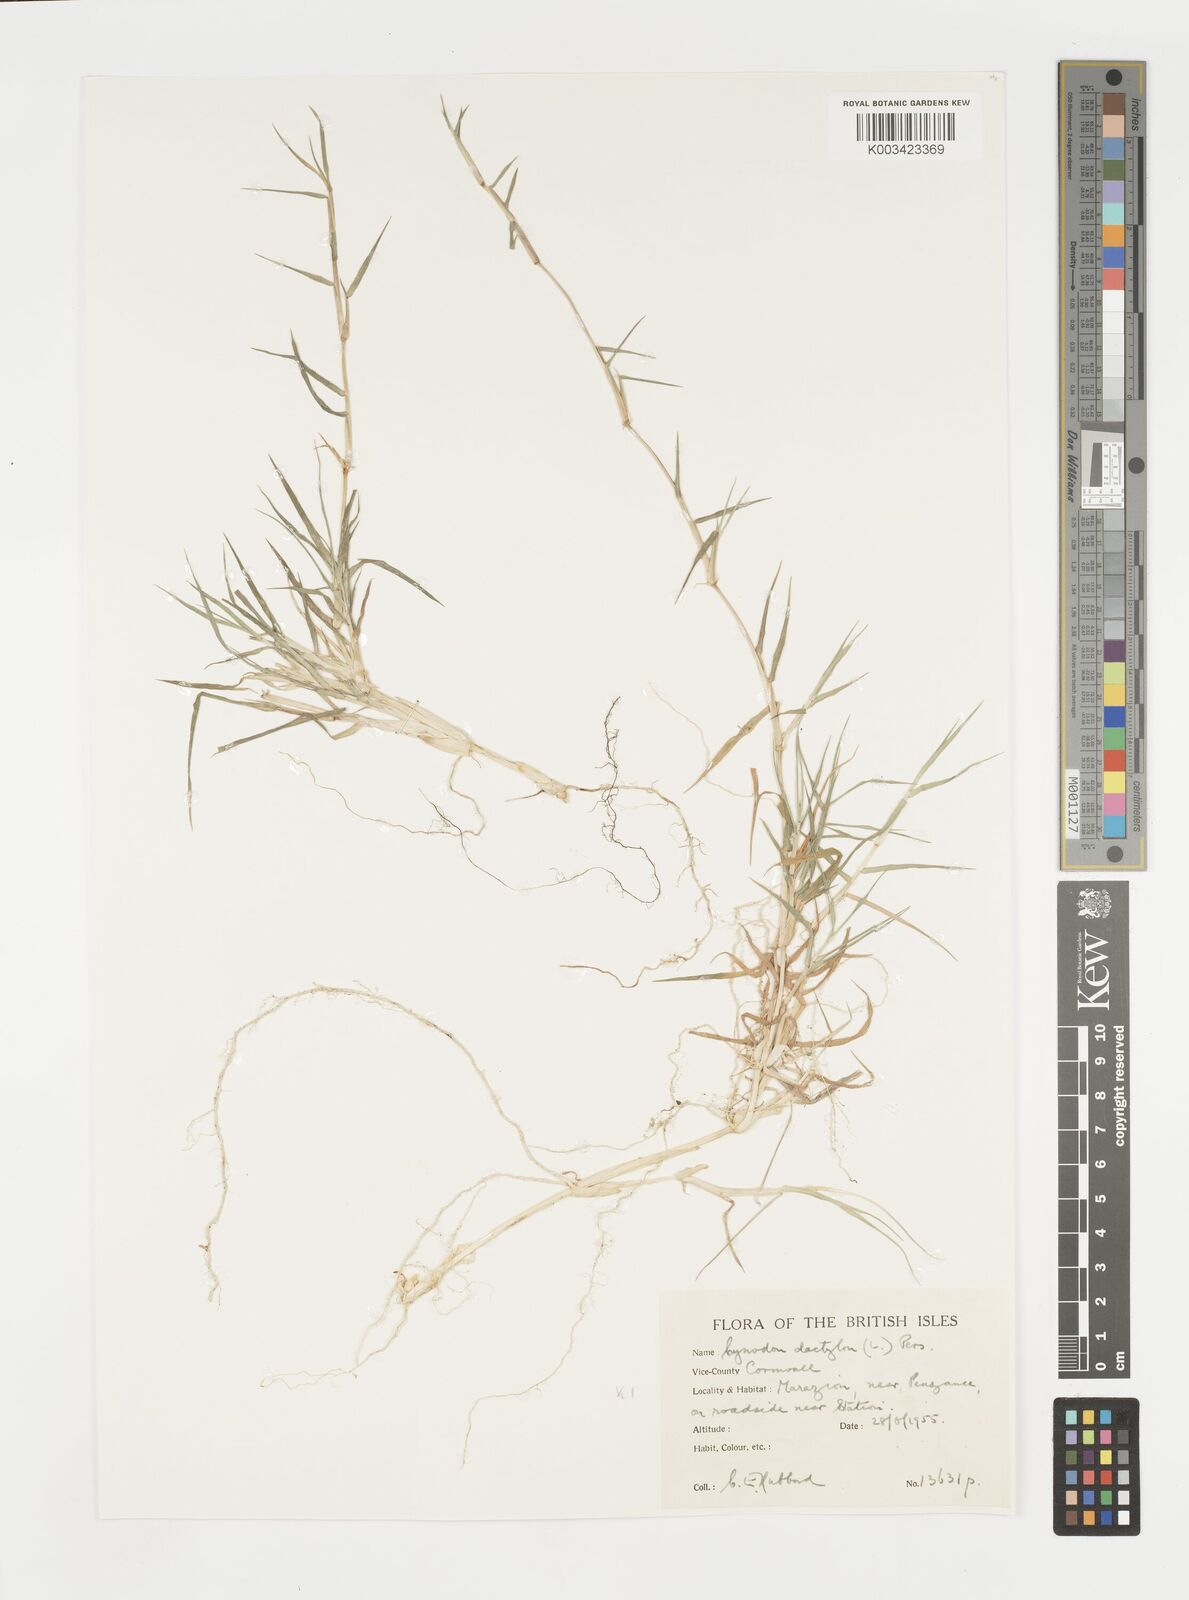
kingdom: Plantae
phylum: Tracheophyta
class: Liliopsida
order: Poales
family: Poaceae
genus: Cynodon
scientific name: Cynodon dactylon
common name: Bermuda grass
